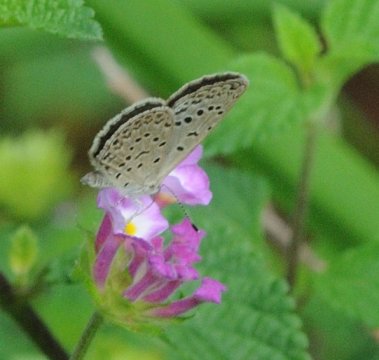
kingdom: Animalia
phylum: Arthropoda
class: Insecta
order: Lepidoptera
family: Lycaenidae
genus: Zizeeria
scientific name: Zizeeria knysna
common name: Dark Grass Blue
